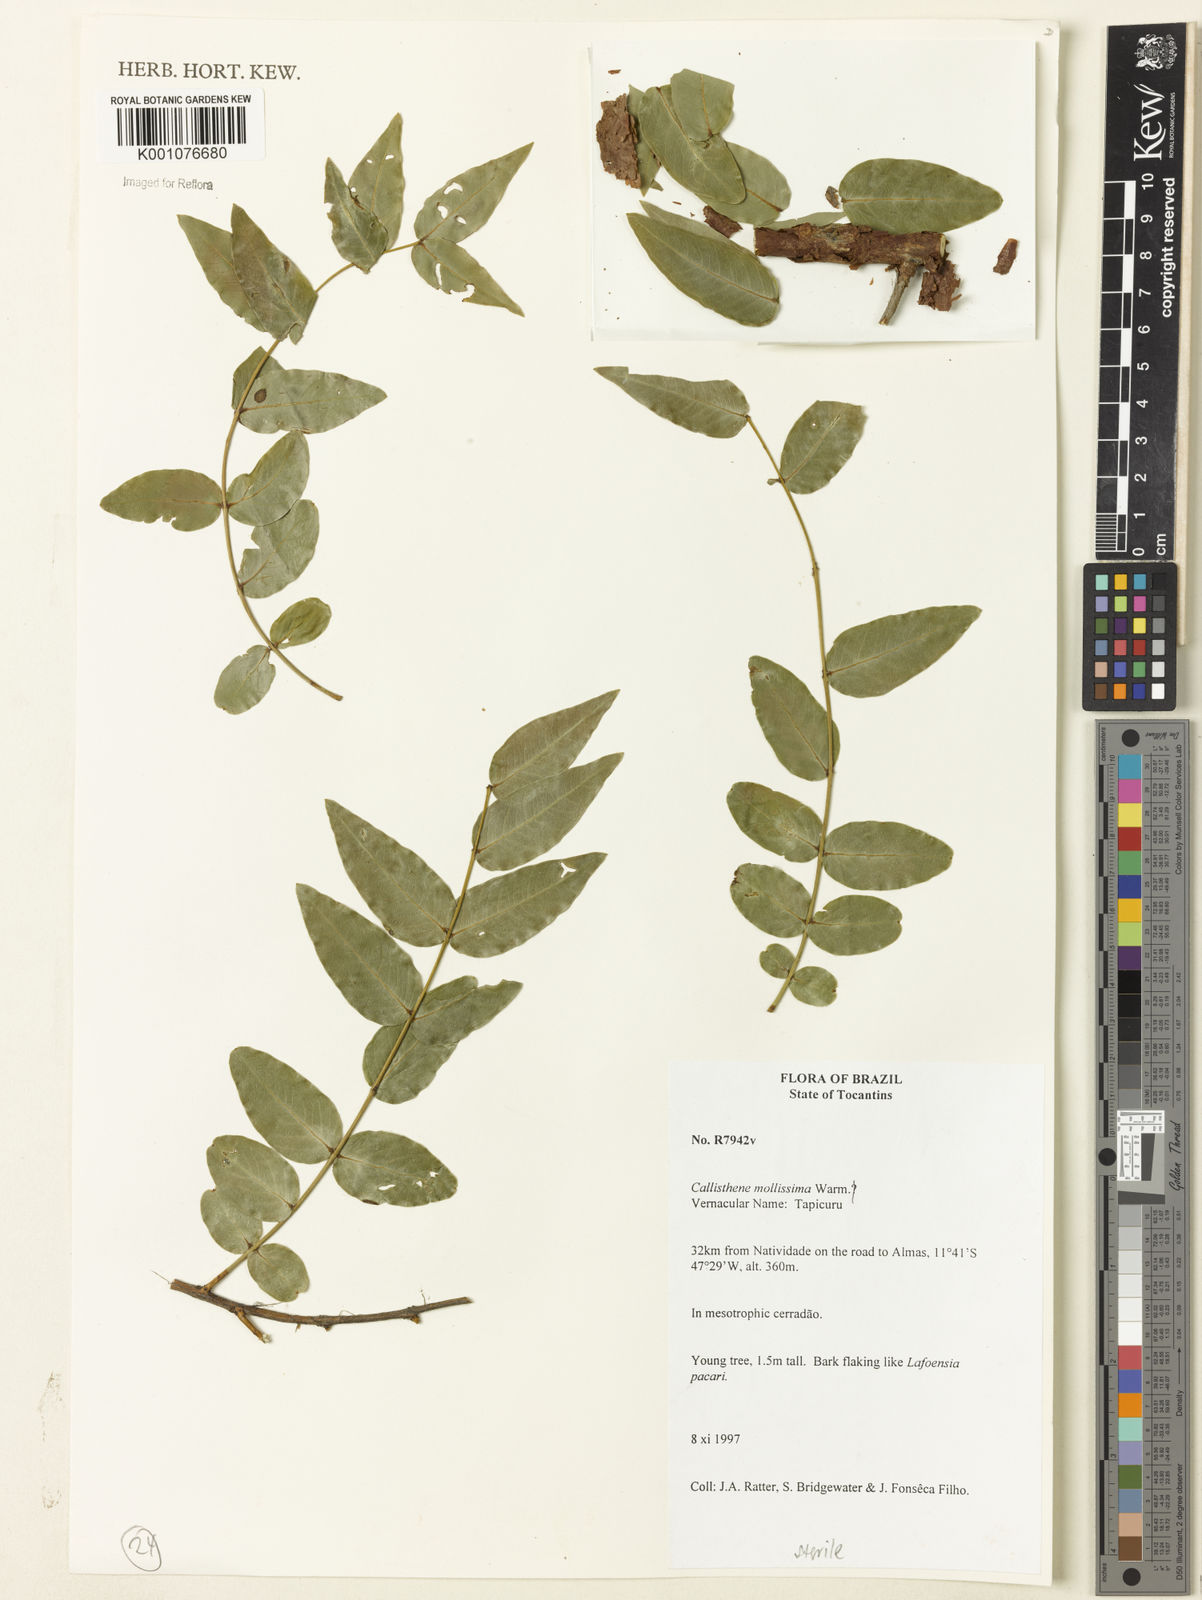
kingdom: Plantae
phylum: Tracheophyta
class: Magnoliopsida
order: Myrtales
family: Vochysiaceae
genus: Callisthene
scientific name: Callisthene mollissima
